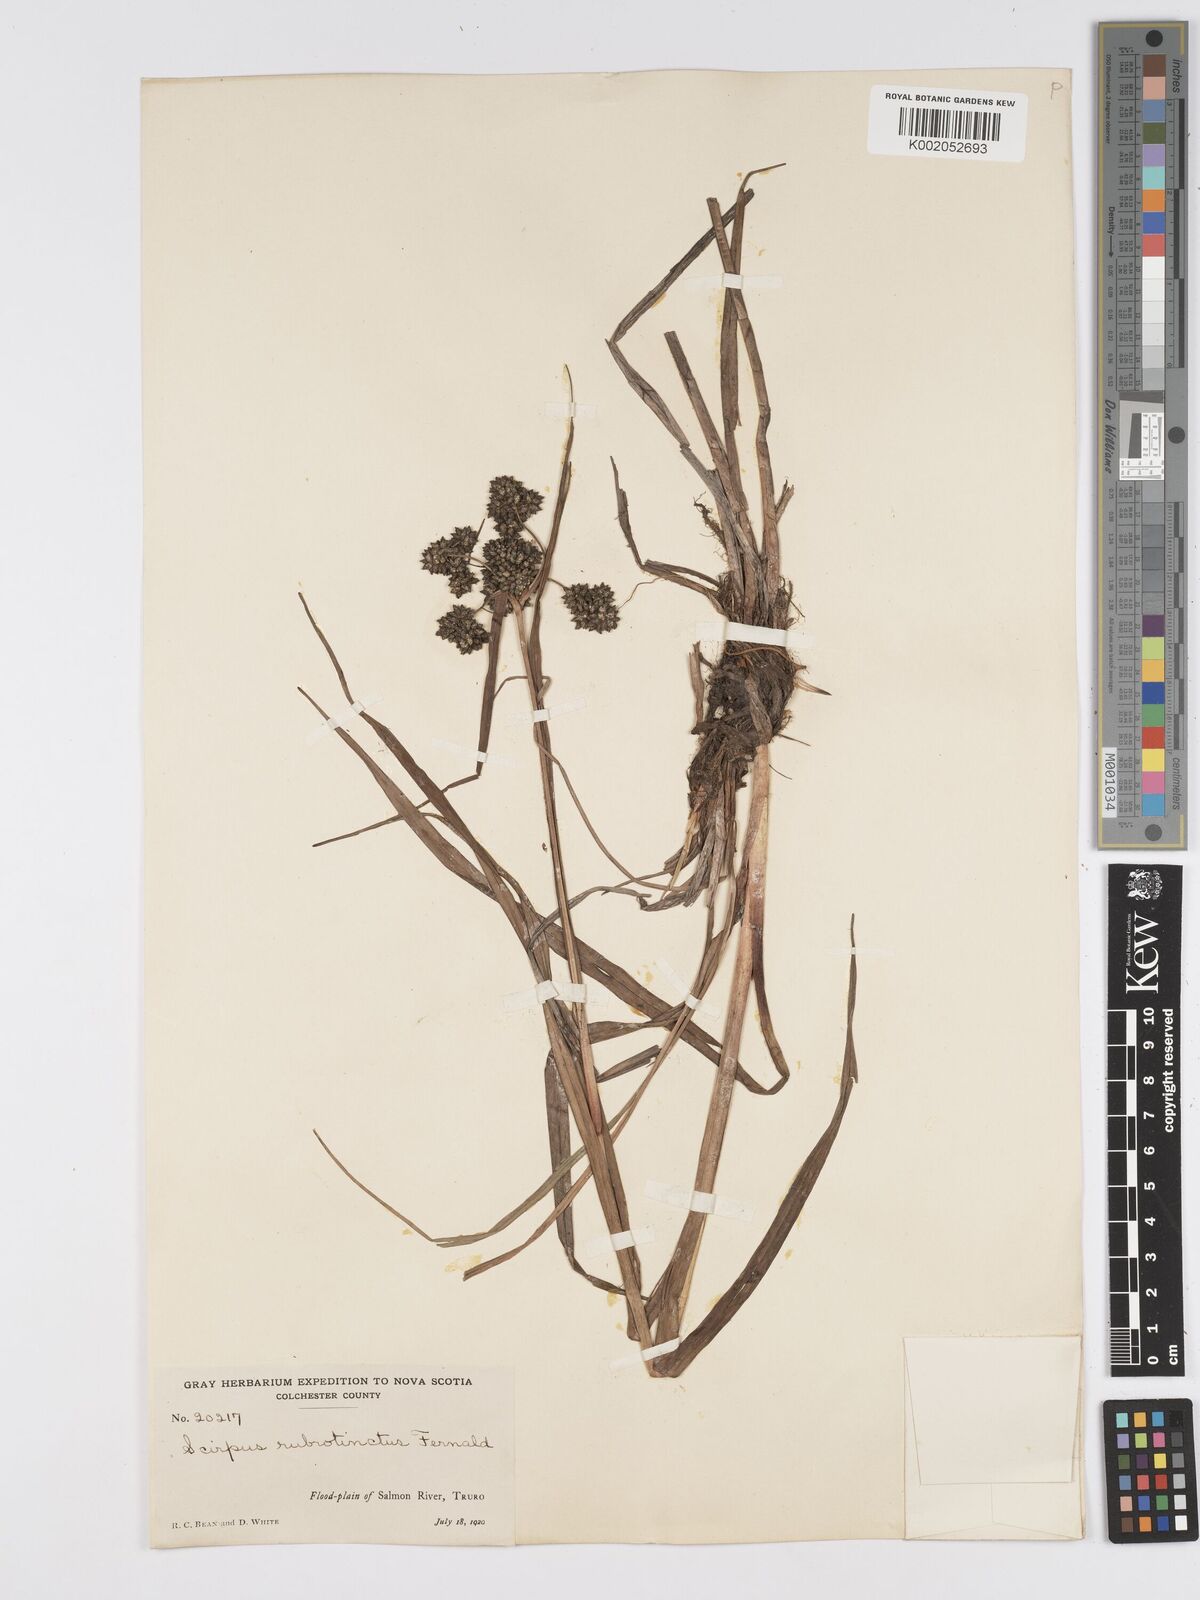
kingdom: Plantae
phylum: Tracheophyta
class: Liliopsida
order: Poales
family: Cyperaceae
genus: Scirpus
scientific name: Scirpus microcarpus
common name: Panicled bulrush
